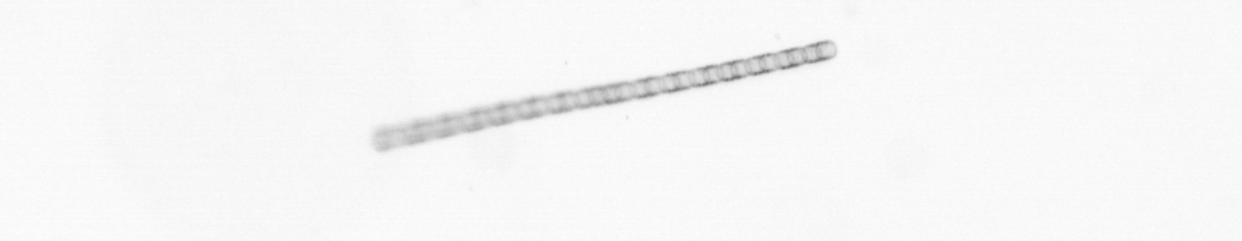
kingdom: Chromista
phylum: Ochrophyta
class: Bacillariophyceae
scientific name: Bacillariophyceae
